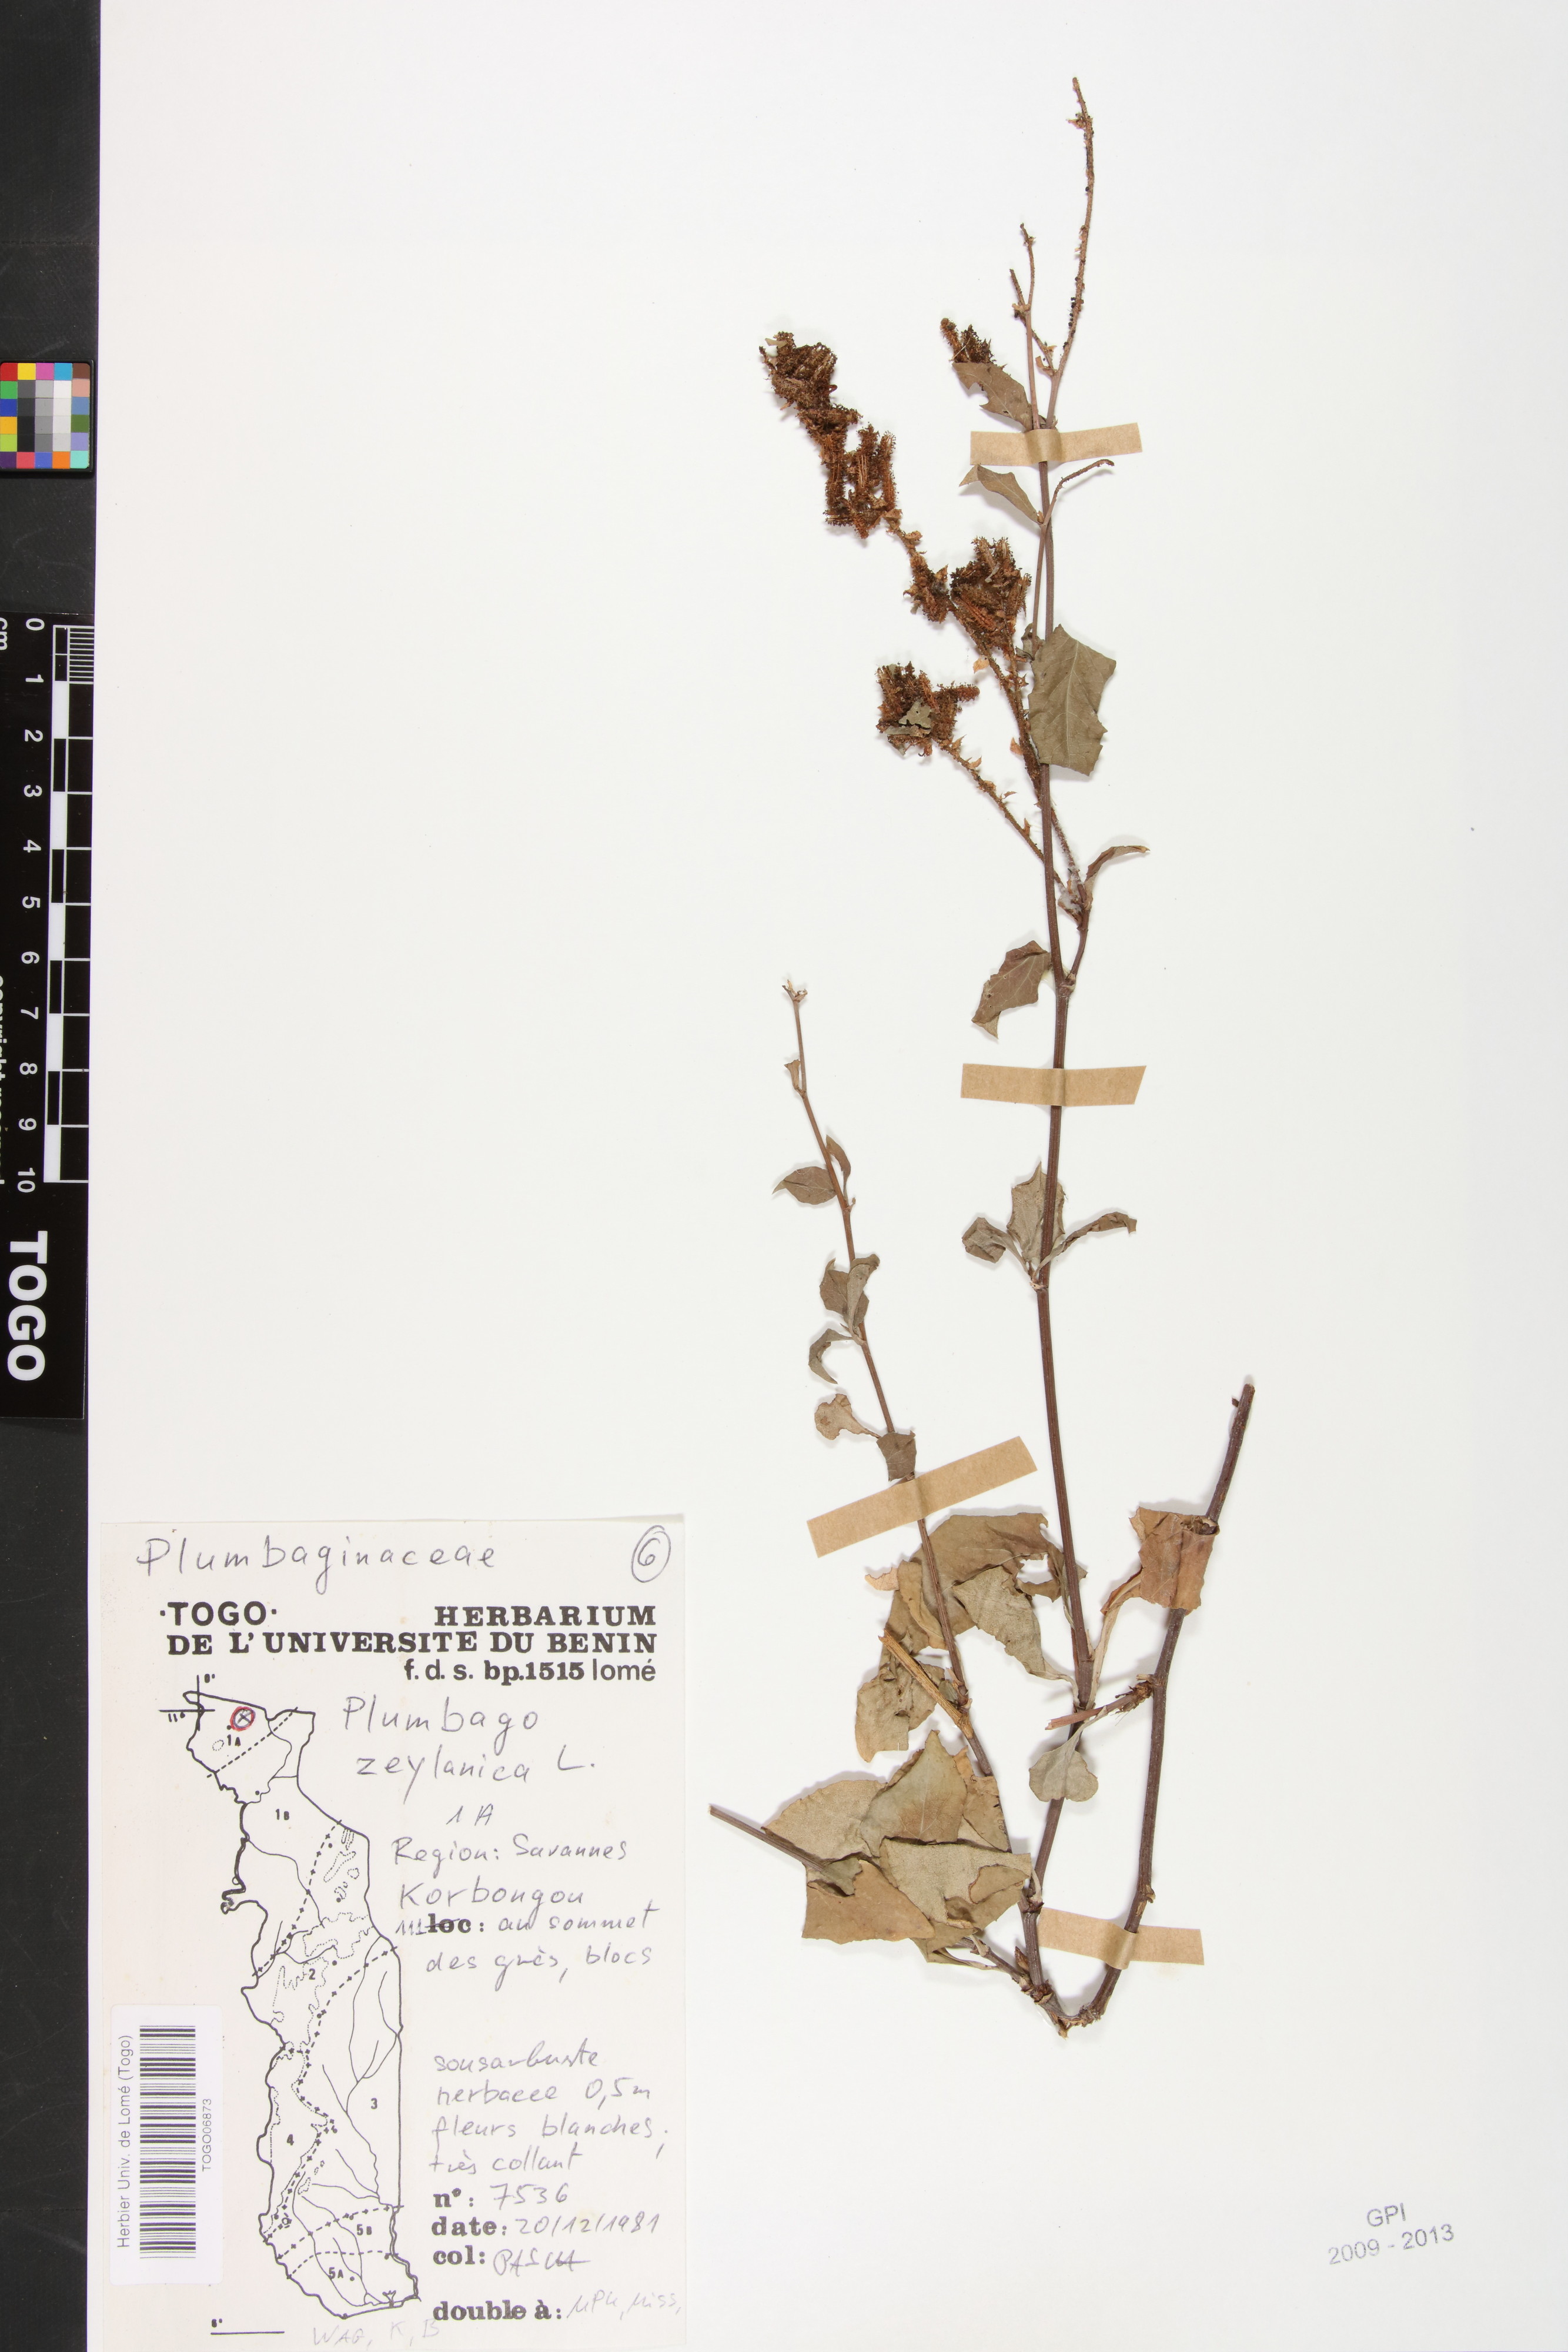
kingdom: Plantae
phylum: Tracheophyta
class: Magnoliopsida
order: Caryophyllales
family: Plumbaginaceae
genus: Plumbago
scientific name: Plumbago zeylanica
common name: Doctorbush
